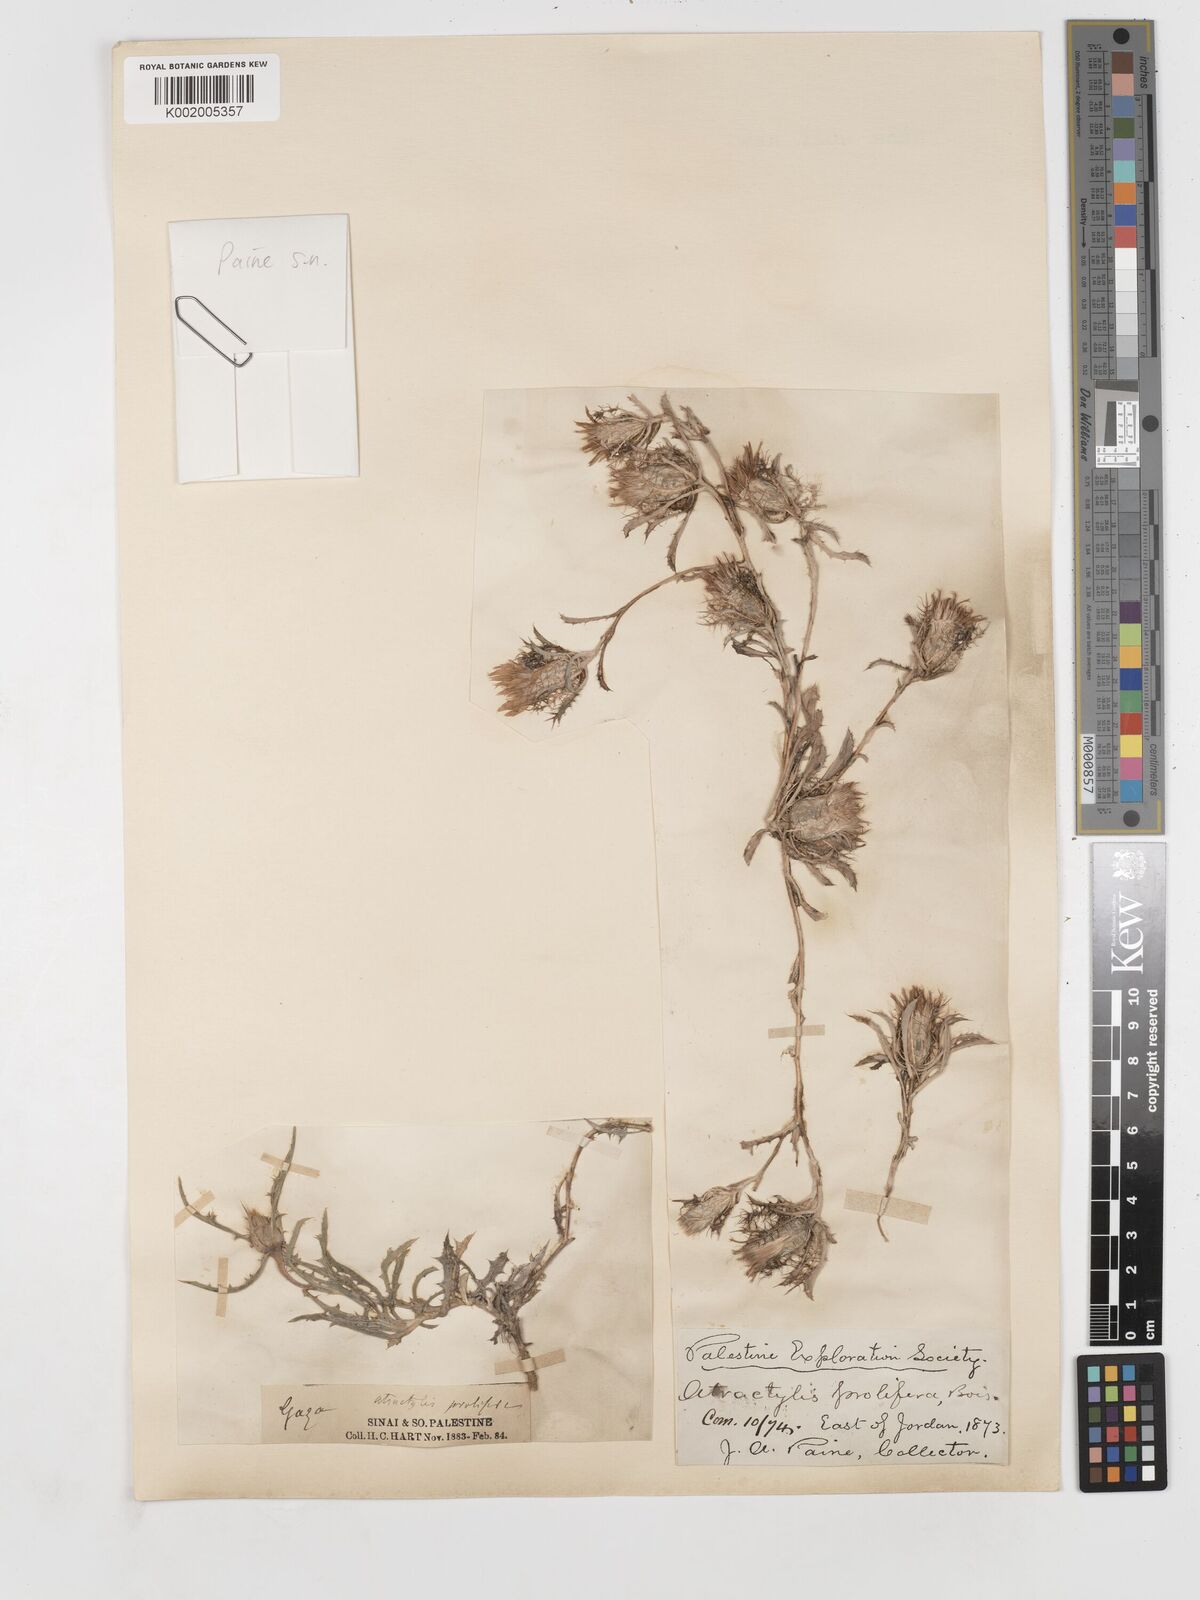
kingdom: Plantae
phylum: Tracheophyta
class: Magnoliopsida
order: Asterales
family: Asteraceae
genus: Atractylis
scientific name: Atractylis prolifera
